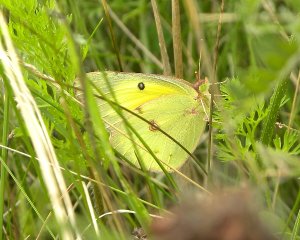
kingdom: Animalia
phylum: Arthropoda
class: Insecta
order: Lepidoptera
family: Pieridae
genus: Colias
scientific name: Colias philodice
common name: Clouded Sulphur
